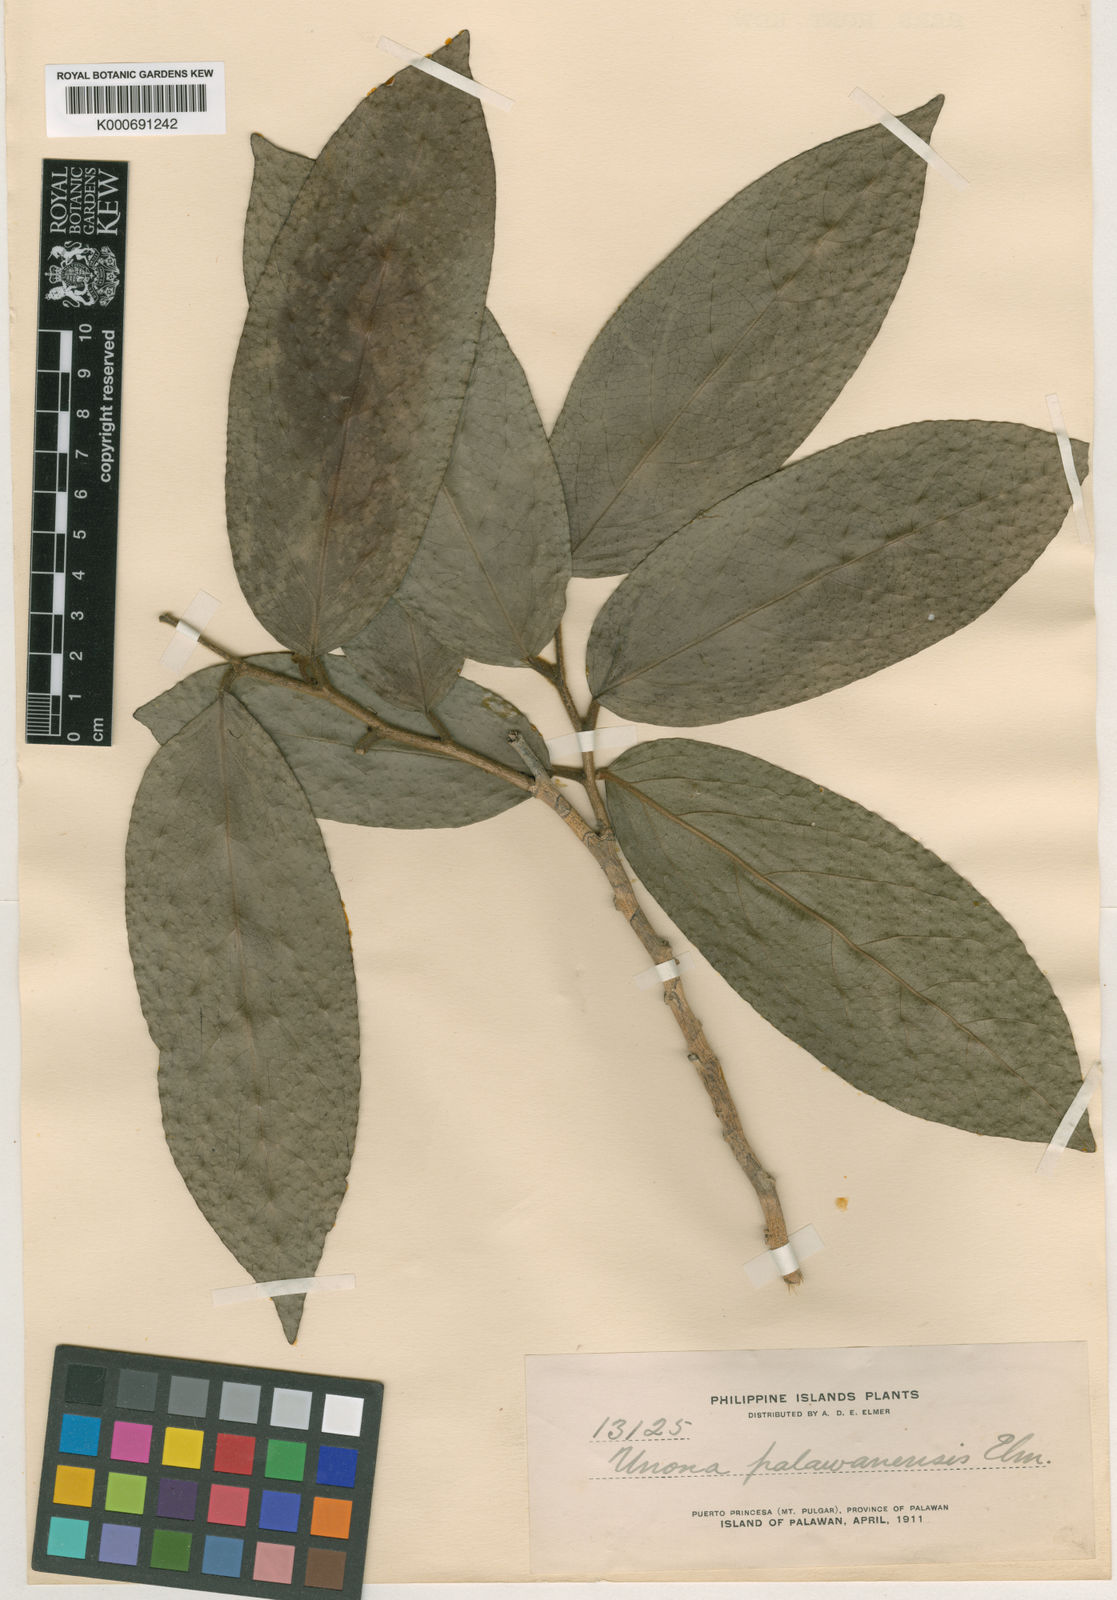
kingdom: Plantae
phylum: Tracheophyta
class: Magnoliopsida
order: Magnoliales
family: Annonaceae
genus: Meiogyne
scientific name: Meiogyne virgata
